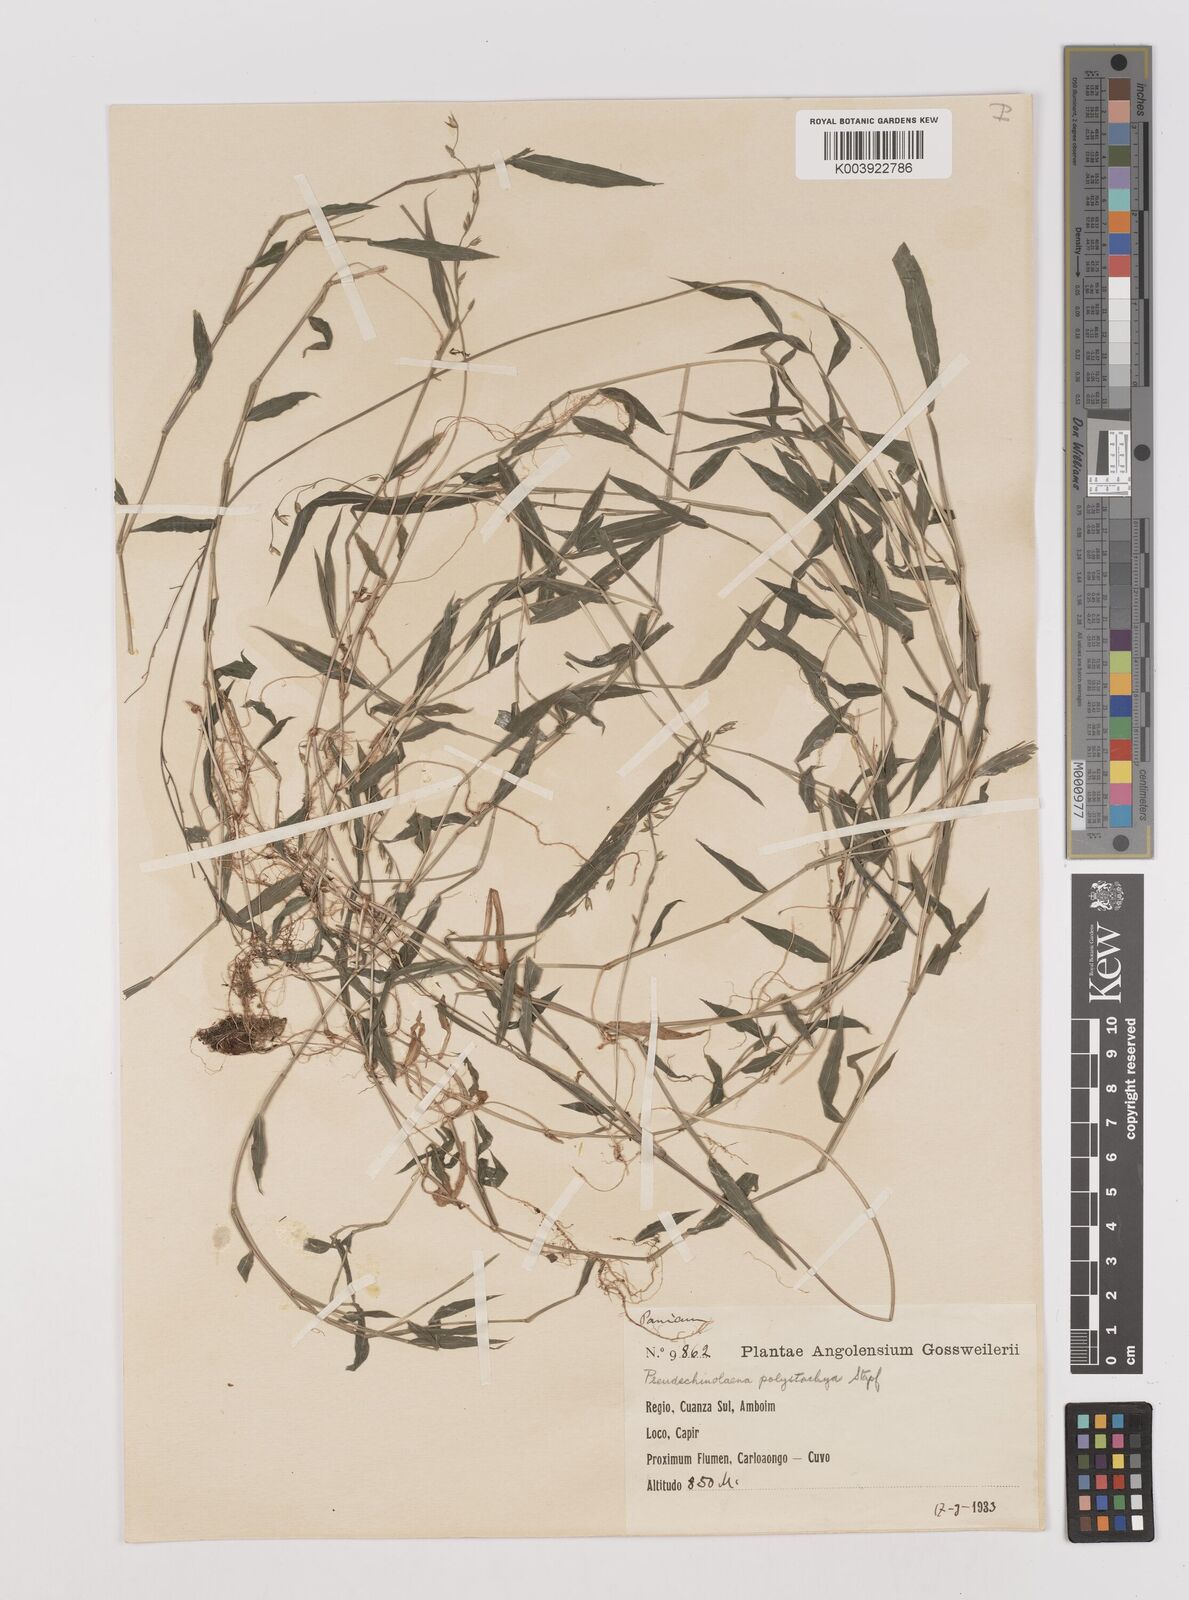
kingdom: Plantae
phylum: Tracheophyta
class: Liliopsida
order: Poales
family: Poaceae
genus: Pseudechinolaena
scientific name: Pseudechinolaena polystachya
